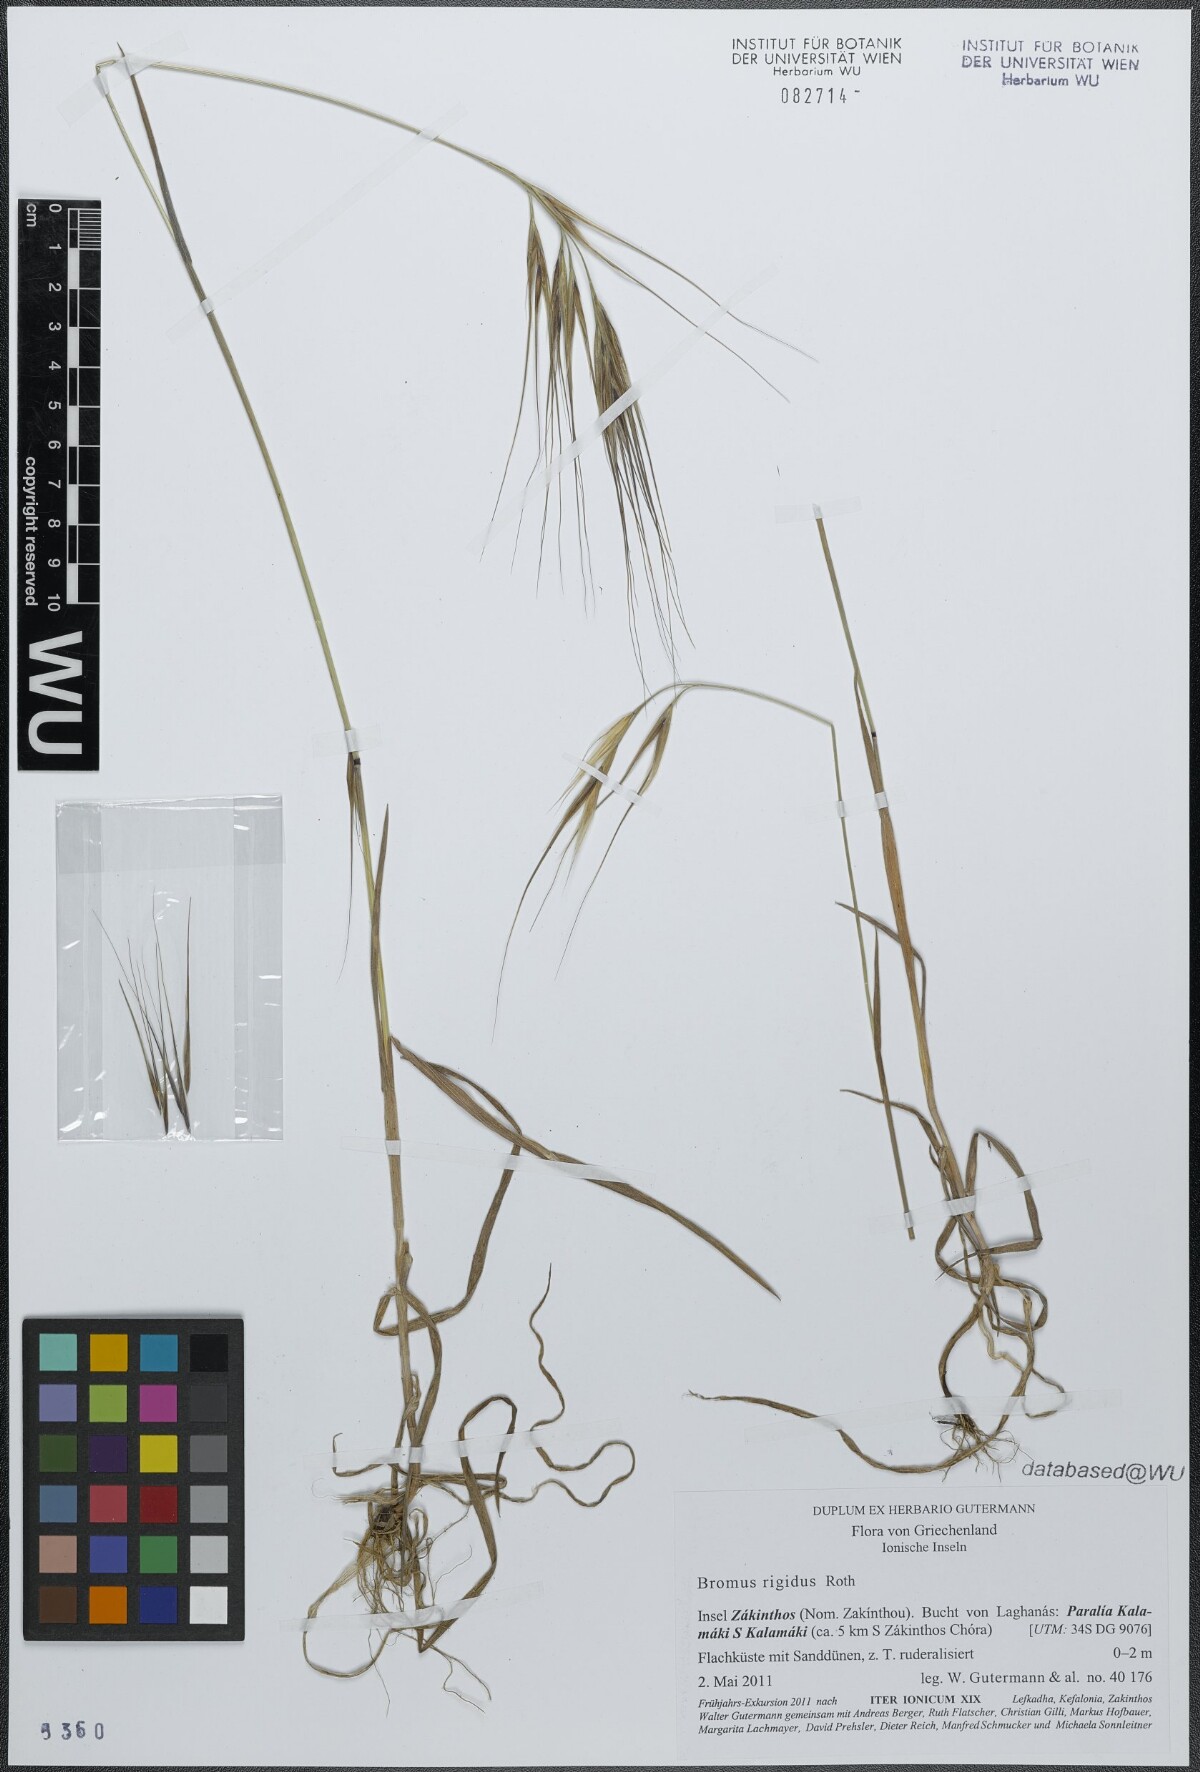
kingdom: Plantae
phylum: Tracheophyta
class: Liliopsida
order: Poales
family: Poaceae
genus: Bromus
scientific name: Bromus rigidus
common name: Ripgut brome
